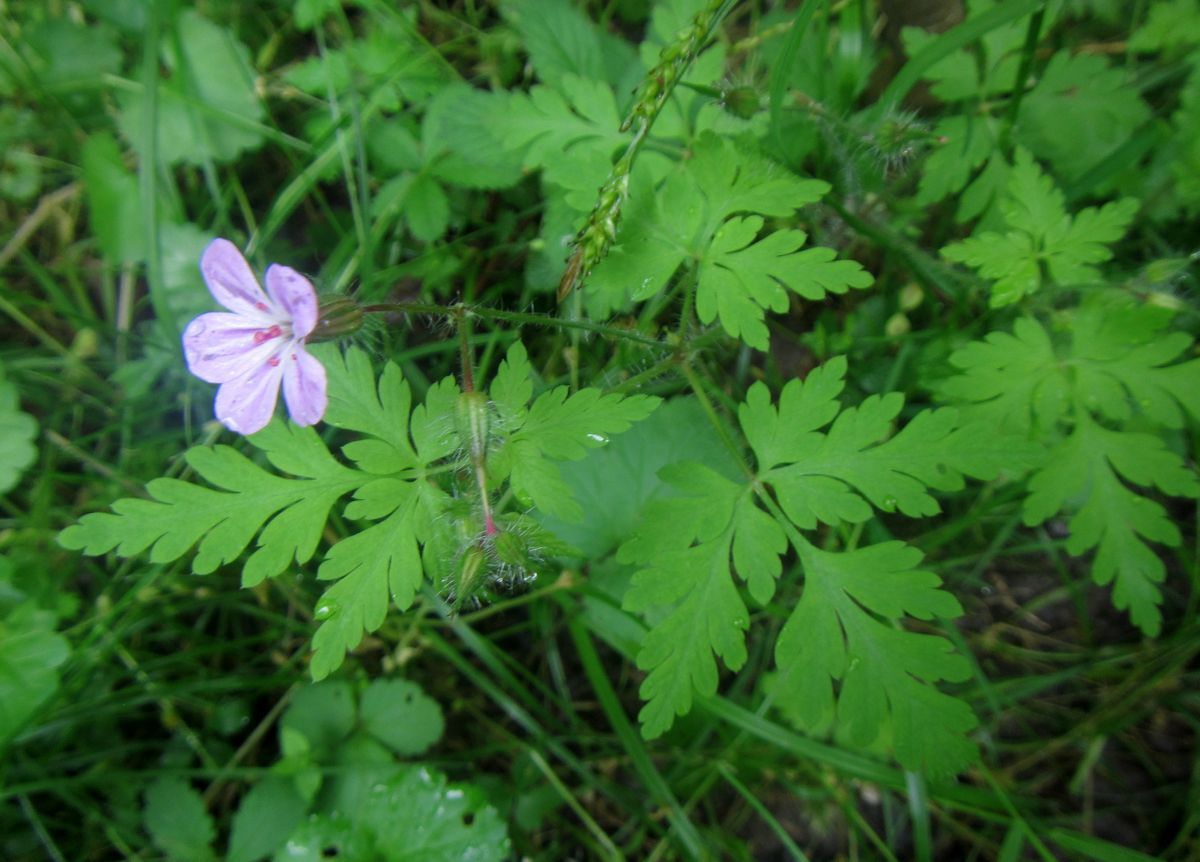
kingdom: Plantae
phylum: Tracheophyta
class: Magnoliopsida
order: Geraniales
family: Geraniaceae
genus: Geranium
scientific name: Geranium robertianum
